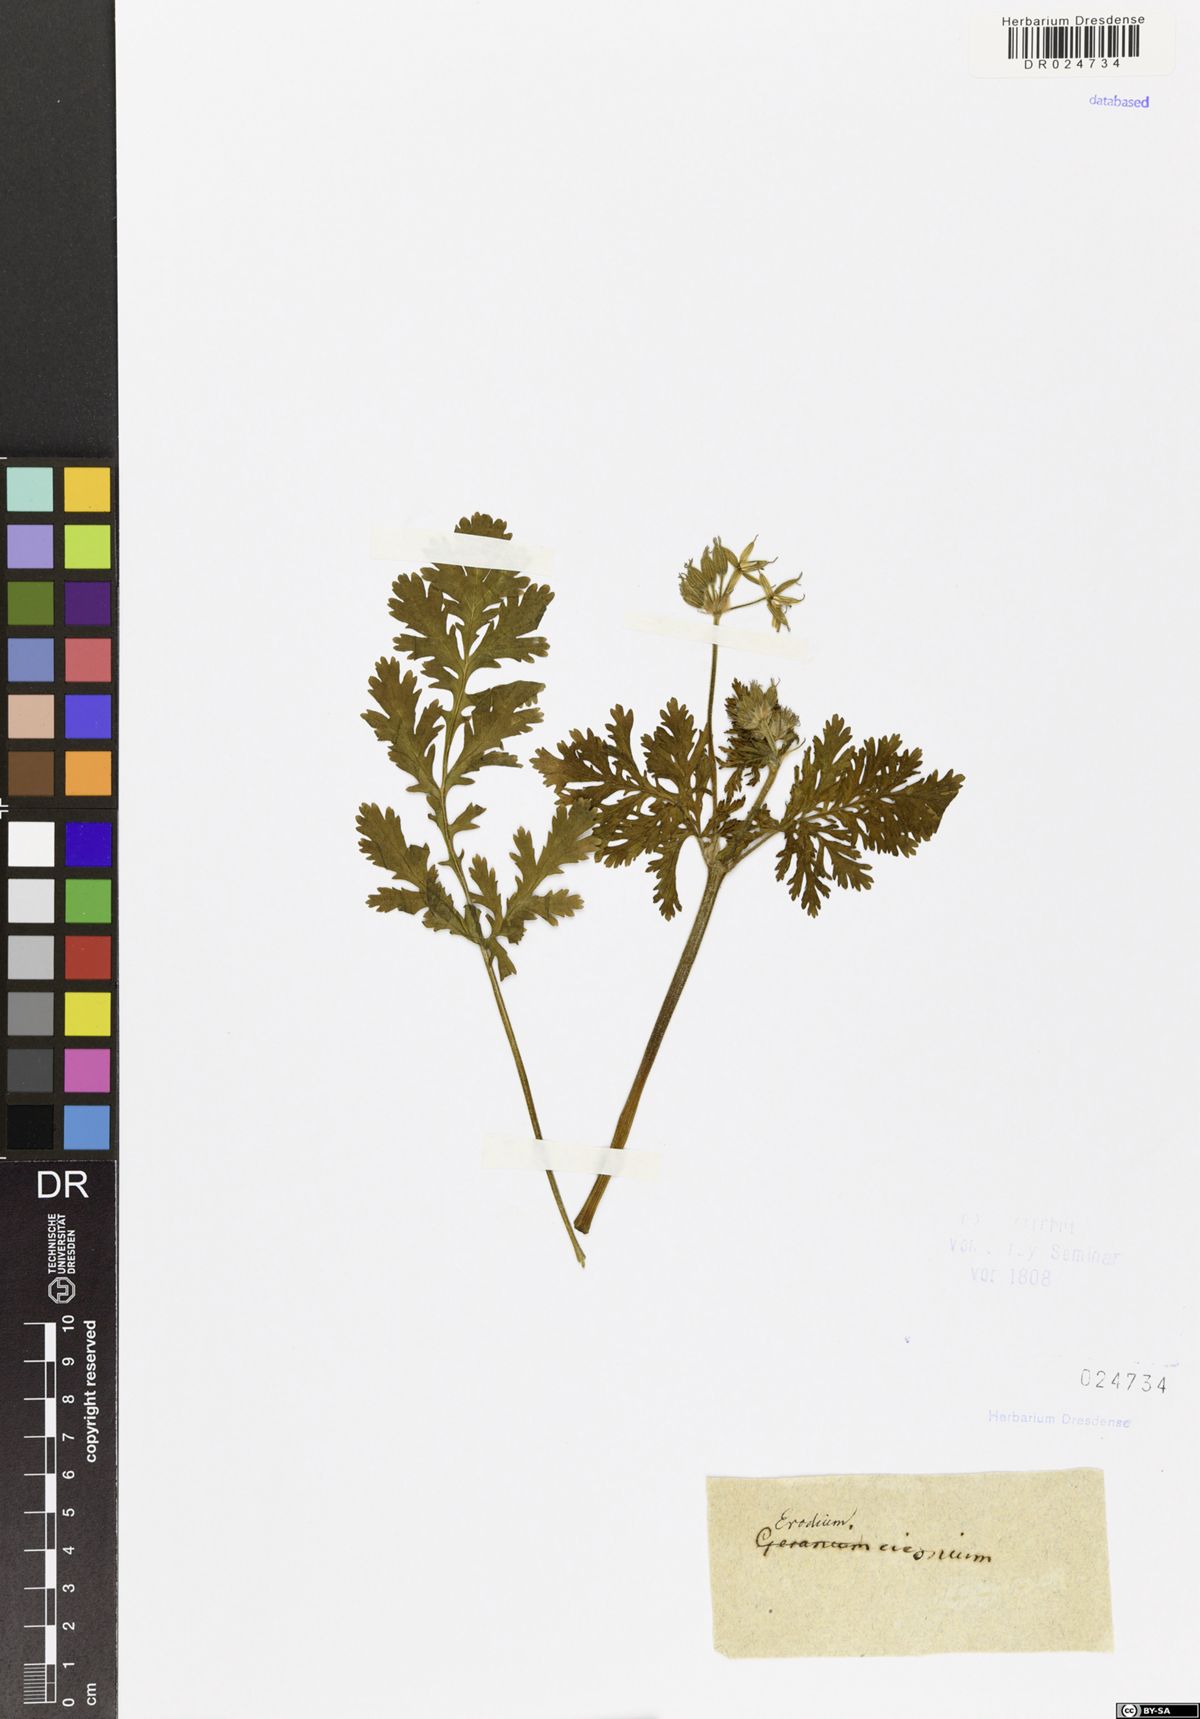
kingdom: Plantae
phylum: Tracheophyta
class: Magnoliopsida
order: Geraniales
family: Geraniaceae
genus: Erodium
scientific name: Erodium ciconium
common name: Common stork's bill
